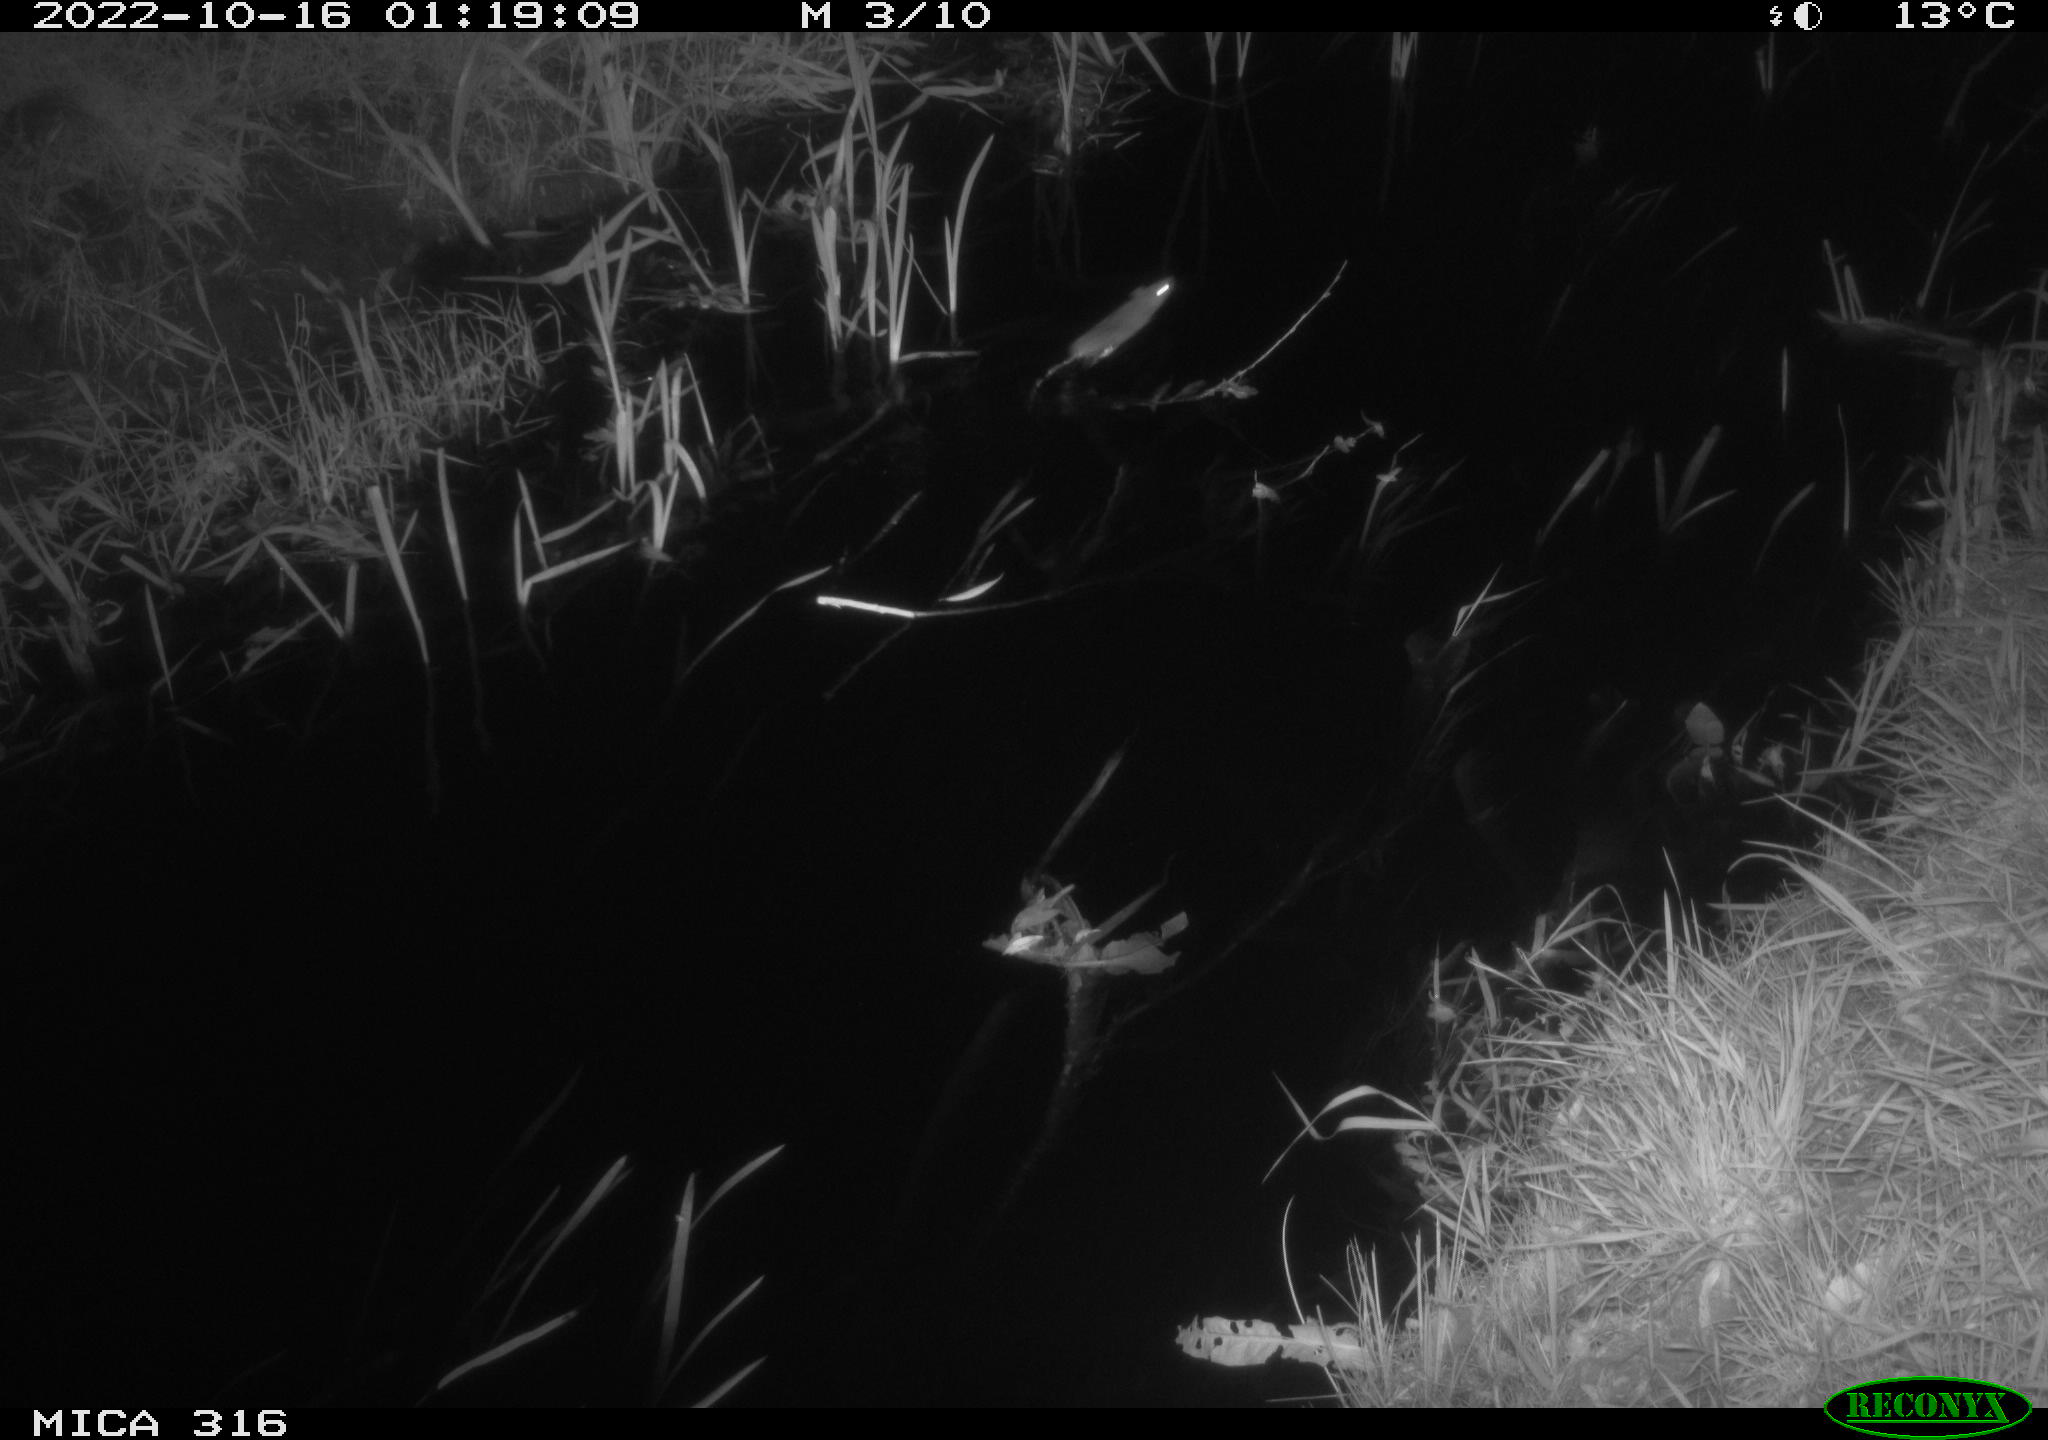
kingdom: Animalia
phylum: Chordata
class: Mammalia
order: Rodentia
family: Muridae
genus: Rattus
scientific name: Rattus norvegicus
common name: Brown rat
